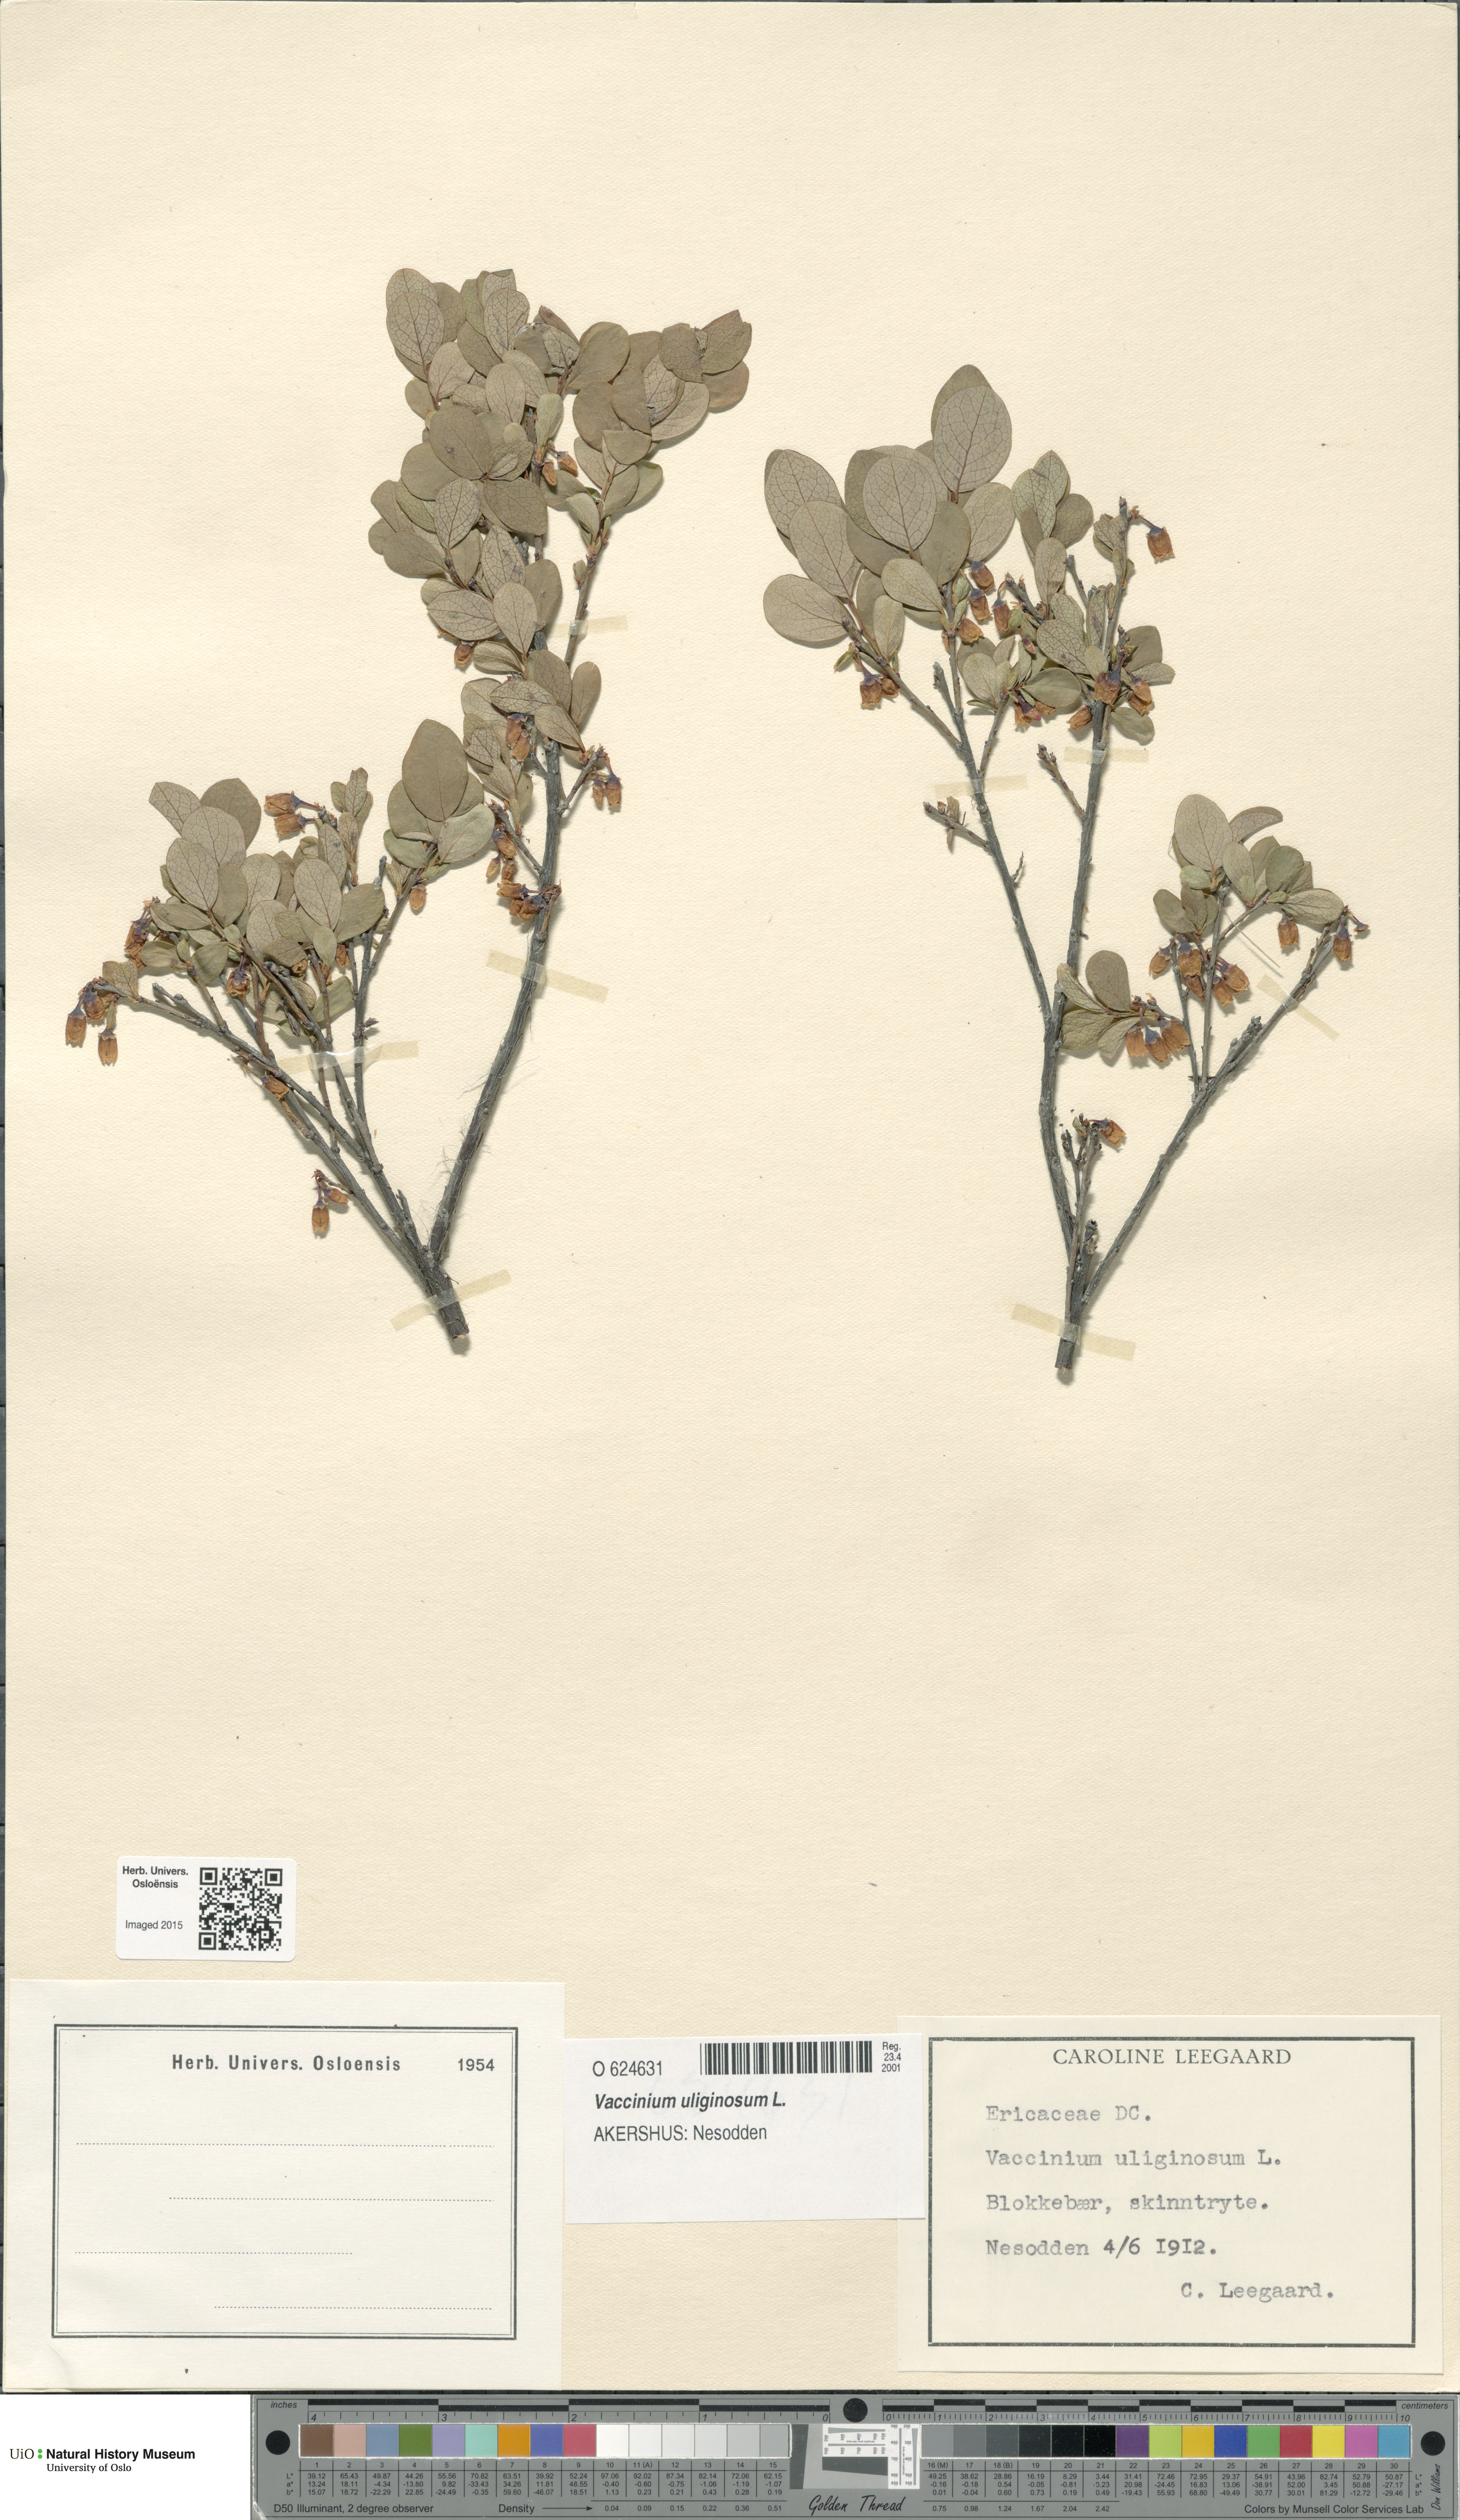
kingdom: Plantae
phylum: Tracheophyta
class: Magnoliopsida
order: Ericales
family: Ericaceae
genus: Vaccinium
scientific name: Vaccinium uliginosum
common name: Bog bilberry
